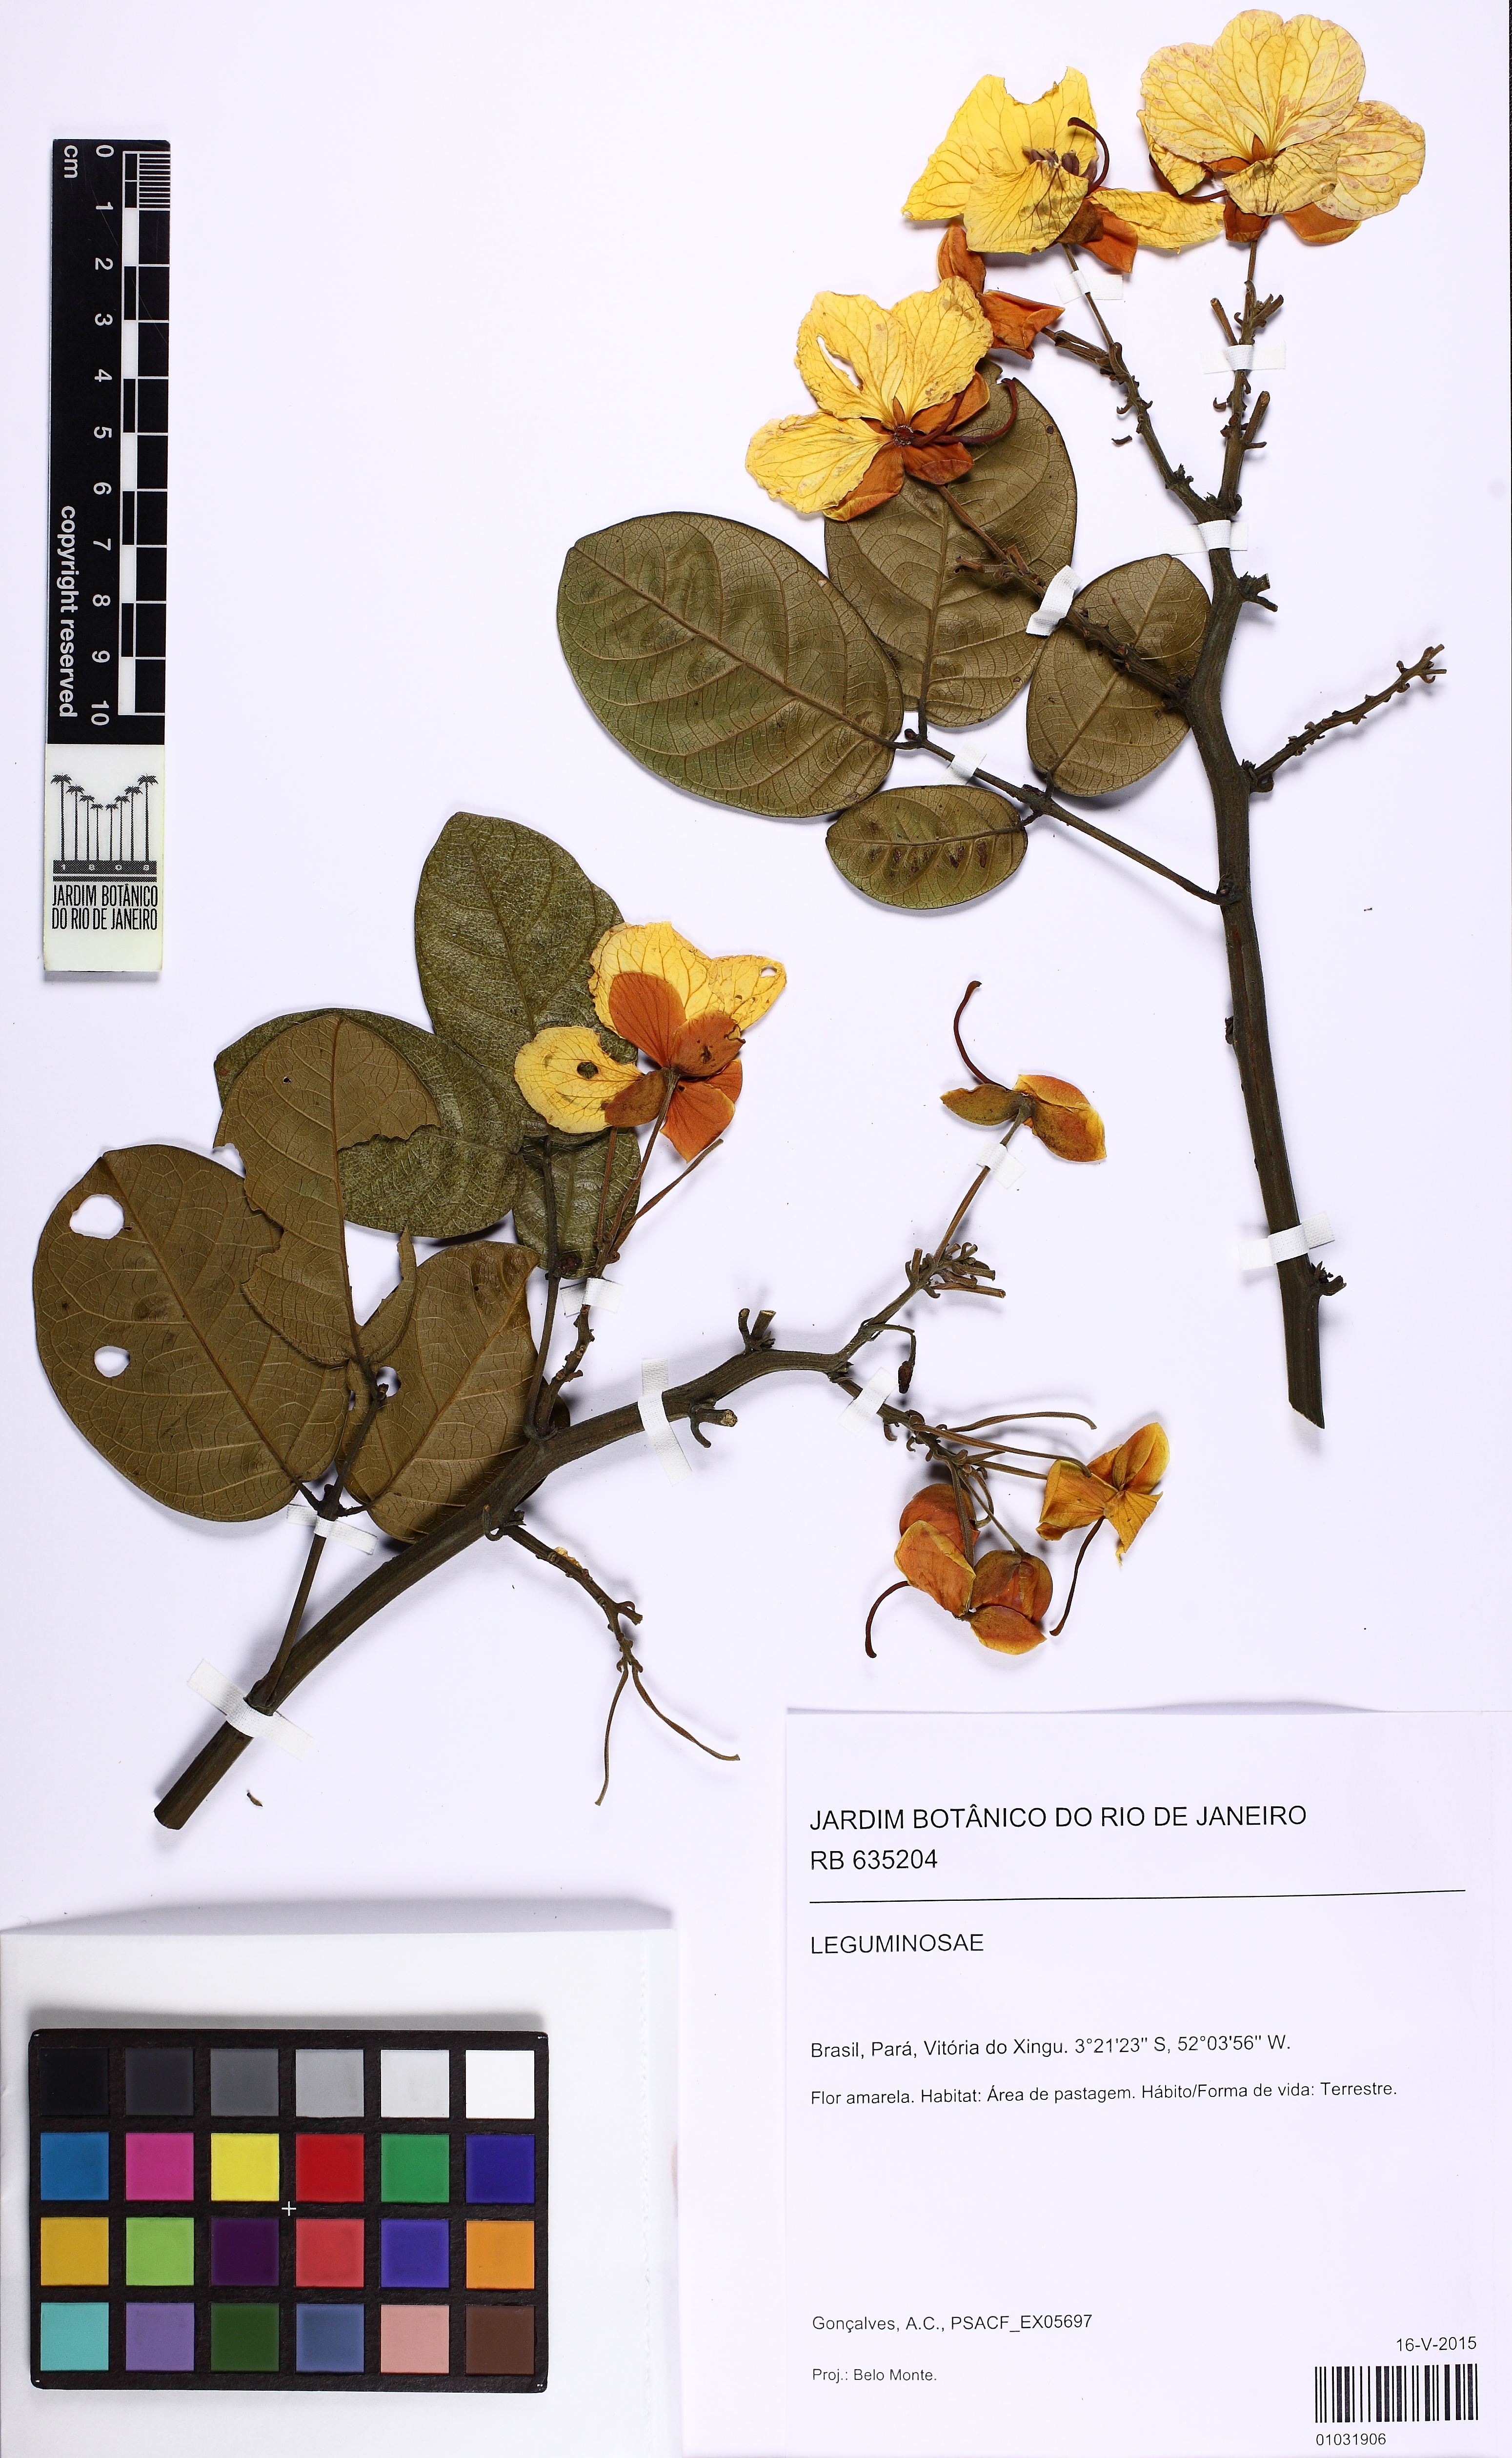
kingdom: Plantae
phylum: Tracheophyta
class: Magnoliopsida
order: Fabales
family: Fabaceae
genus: Senna
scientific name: Senna
